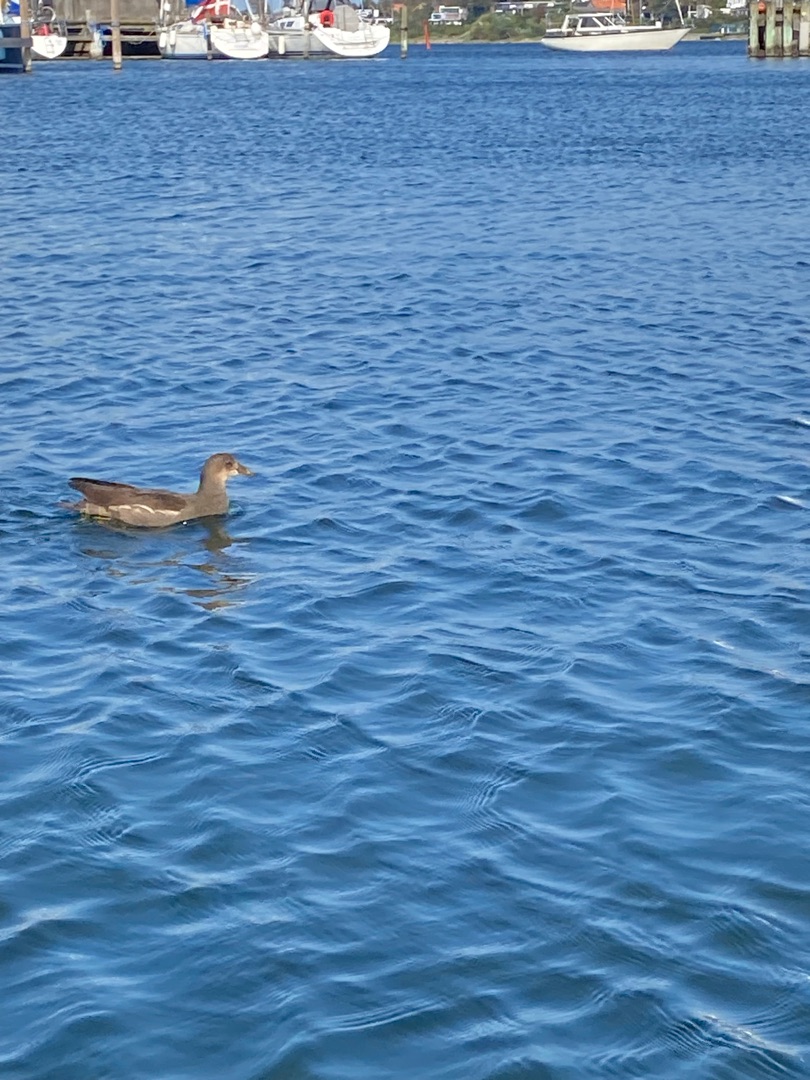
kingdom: Animalia
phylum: Chordata
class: Aves
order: Gruiformes
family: Rallidae
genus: Gallinula
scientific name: Gallinula chloropus
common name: Grønbenet rørhøne
